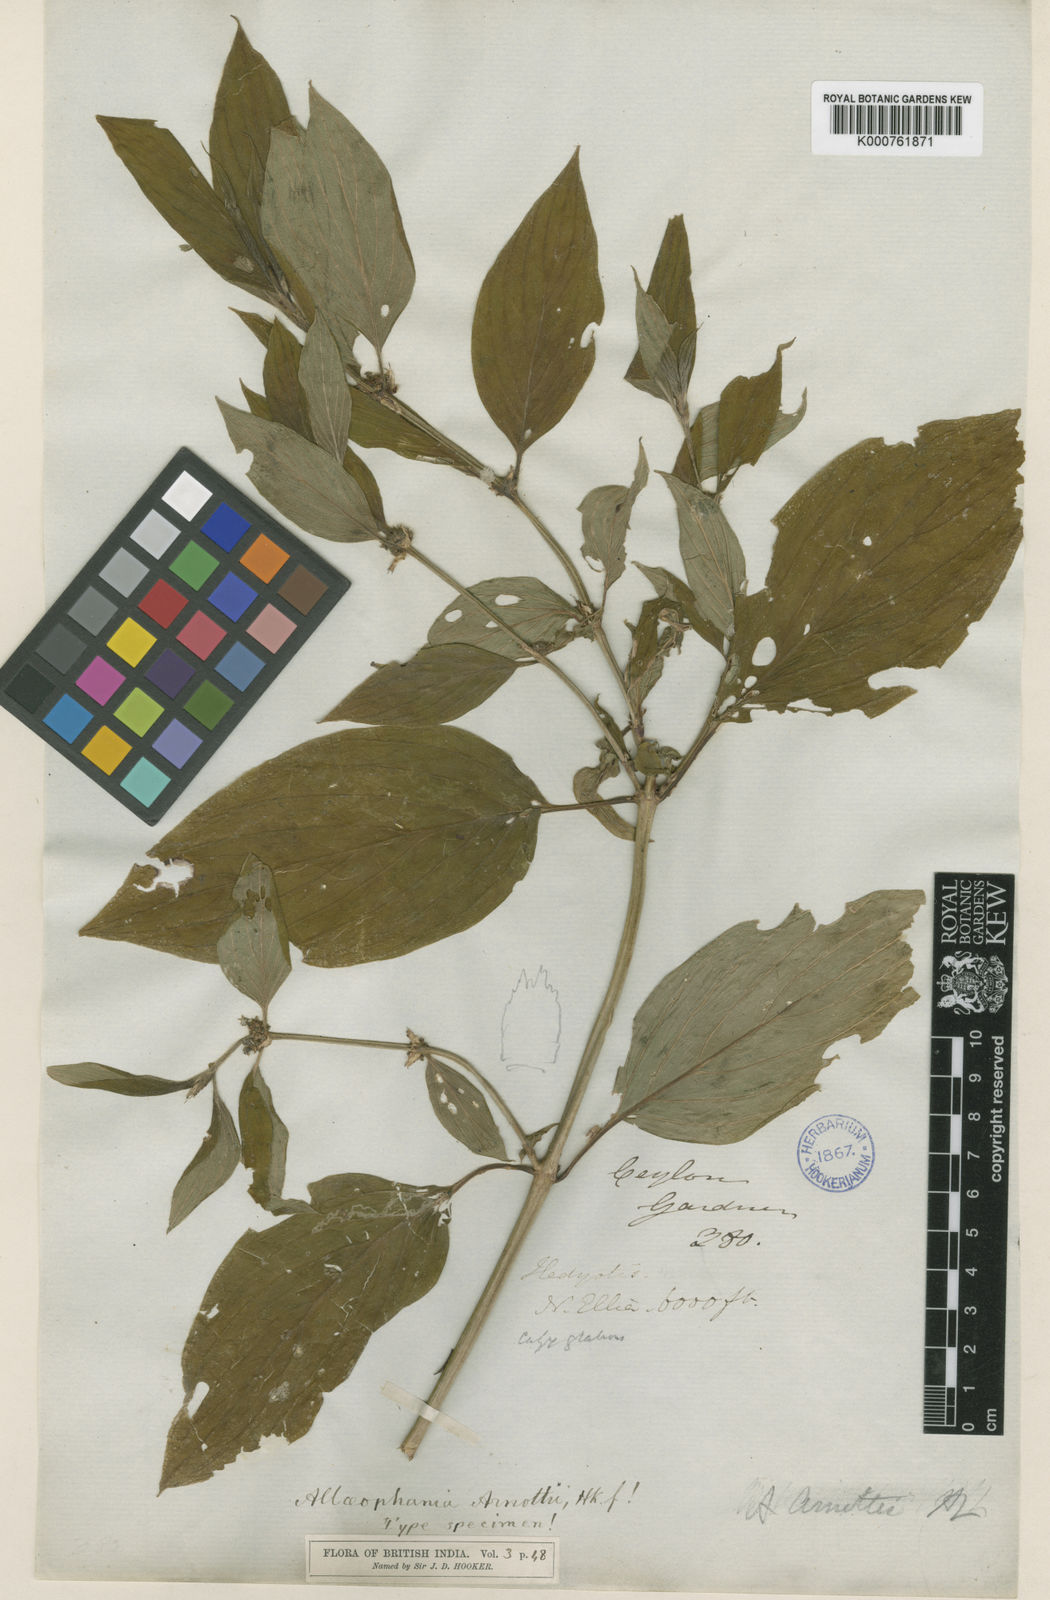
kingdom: Plantae
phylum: Tracheophyta
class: Magnoliopsida
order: Gentianales
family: Rubiaceae
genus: Hedyotis
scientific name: Hedyotis
